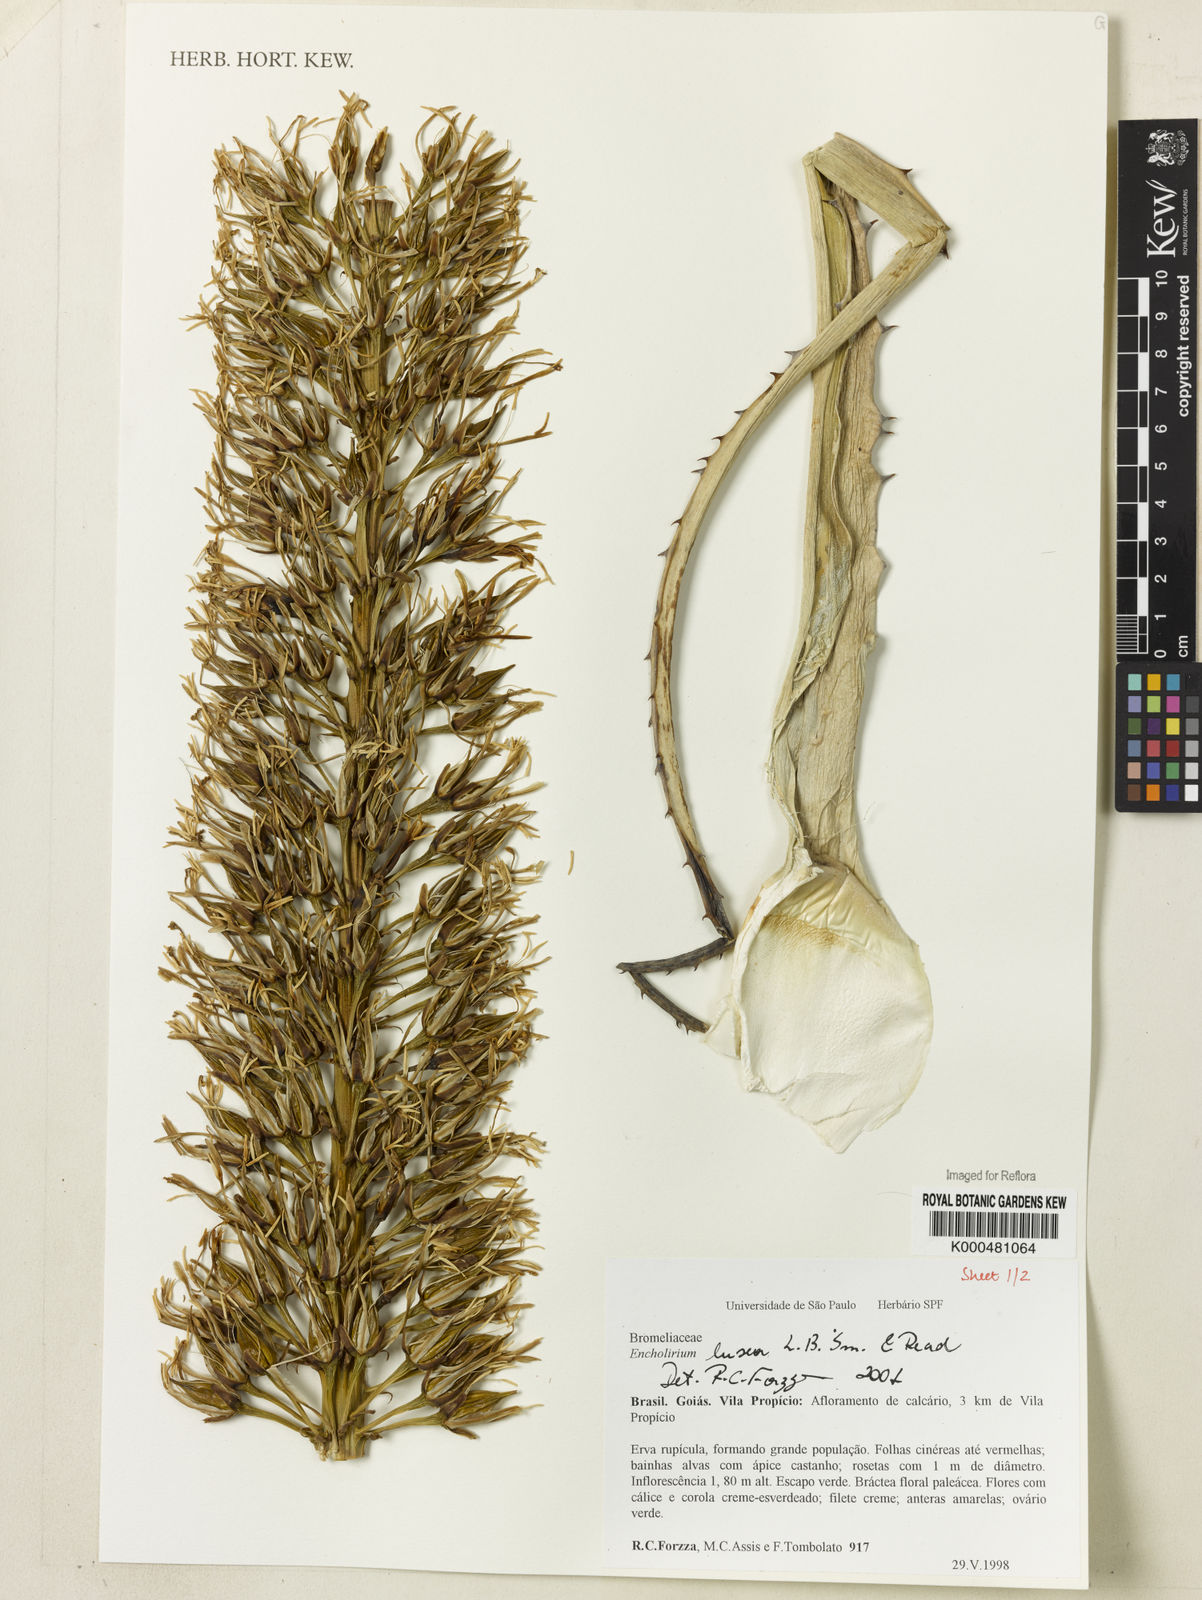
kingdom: Plantae
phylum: Tracheophyta
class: Liliopsida
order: Poales
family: Bromeliaceae
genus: Encholirium
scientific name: Encholirium luxor
